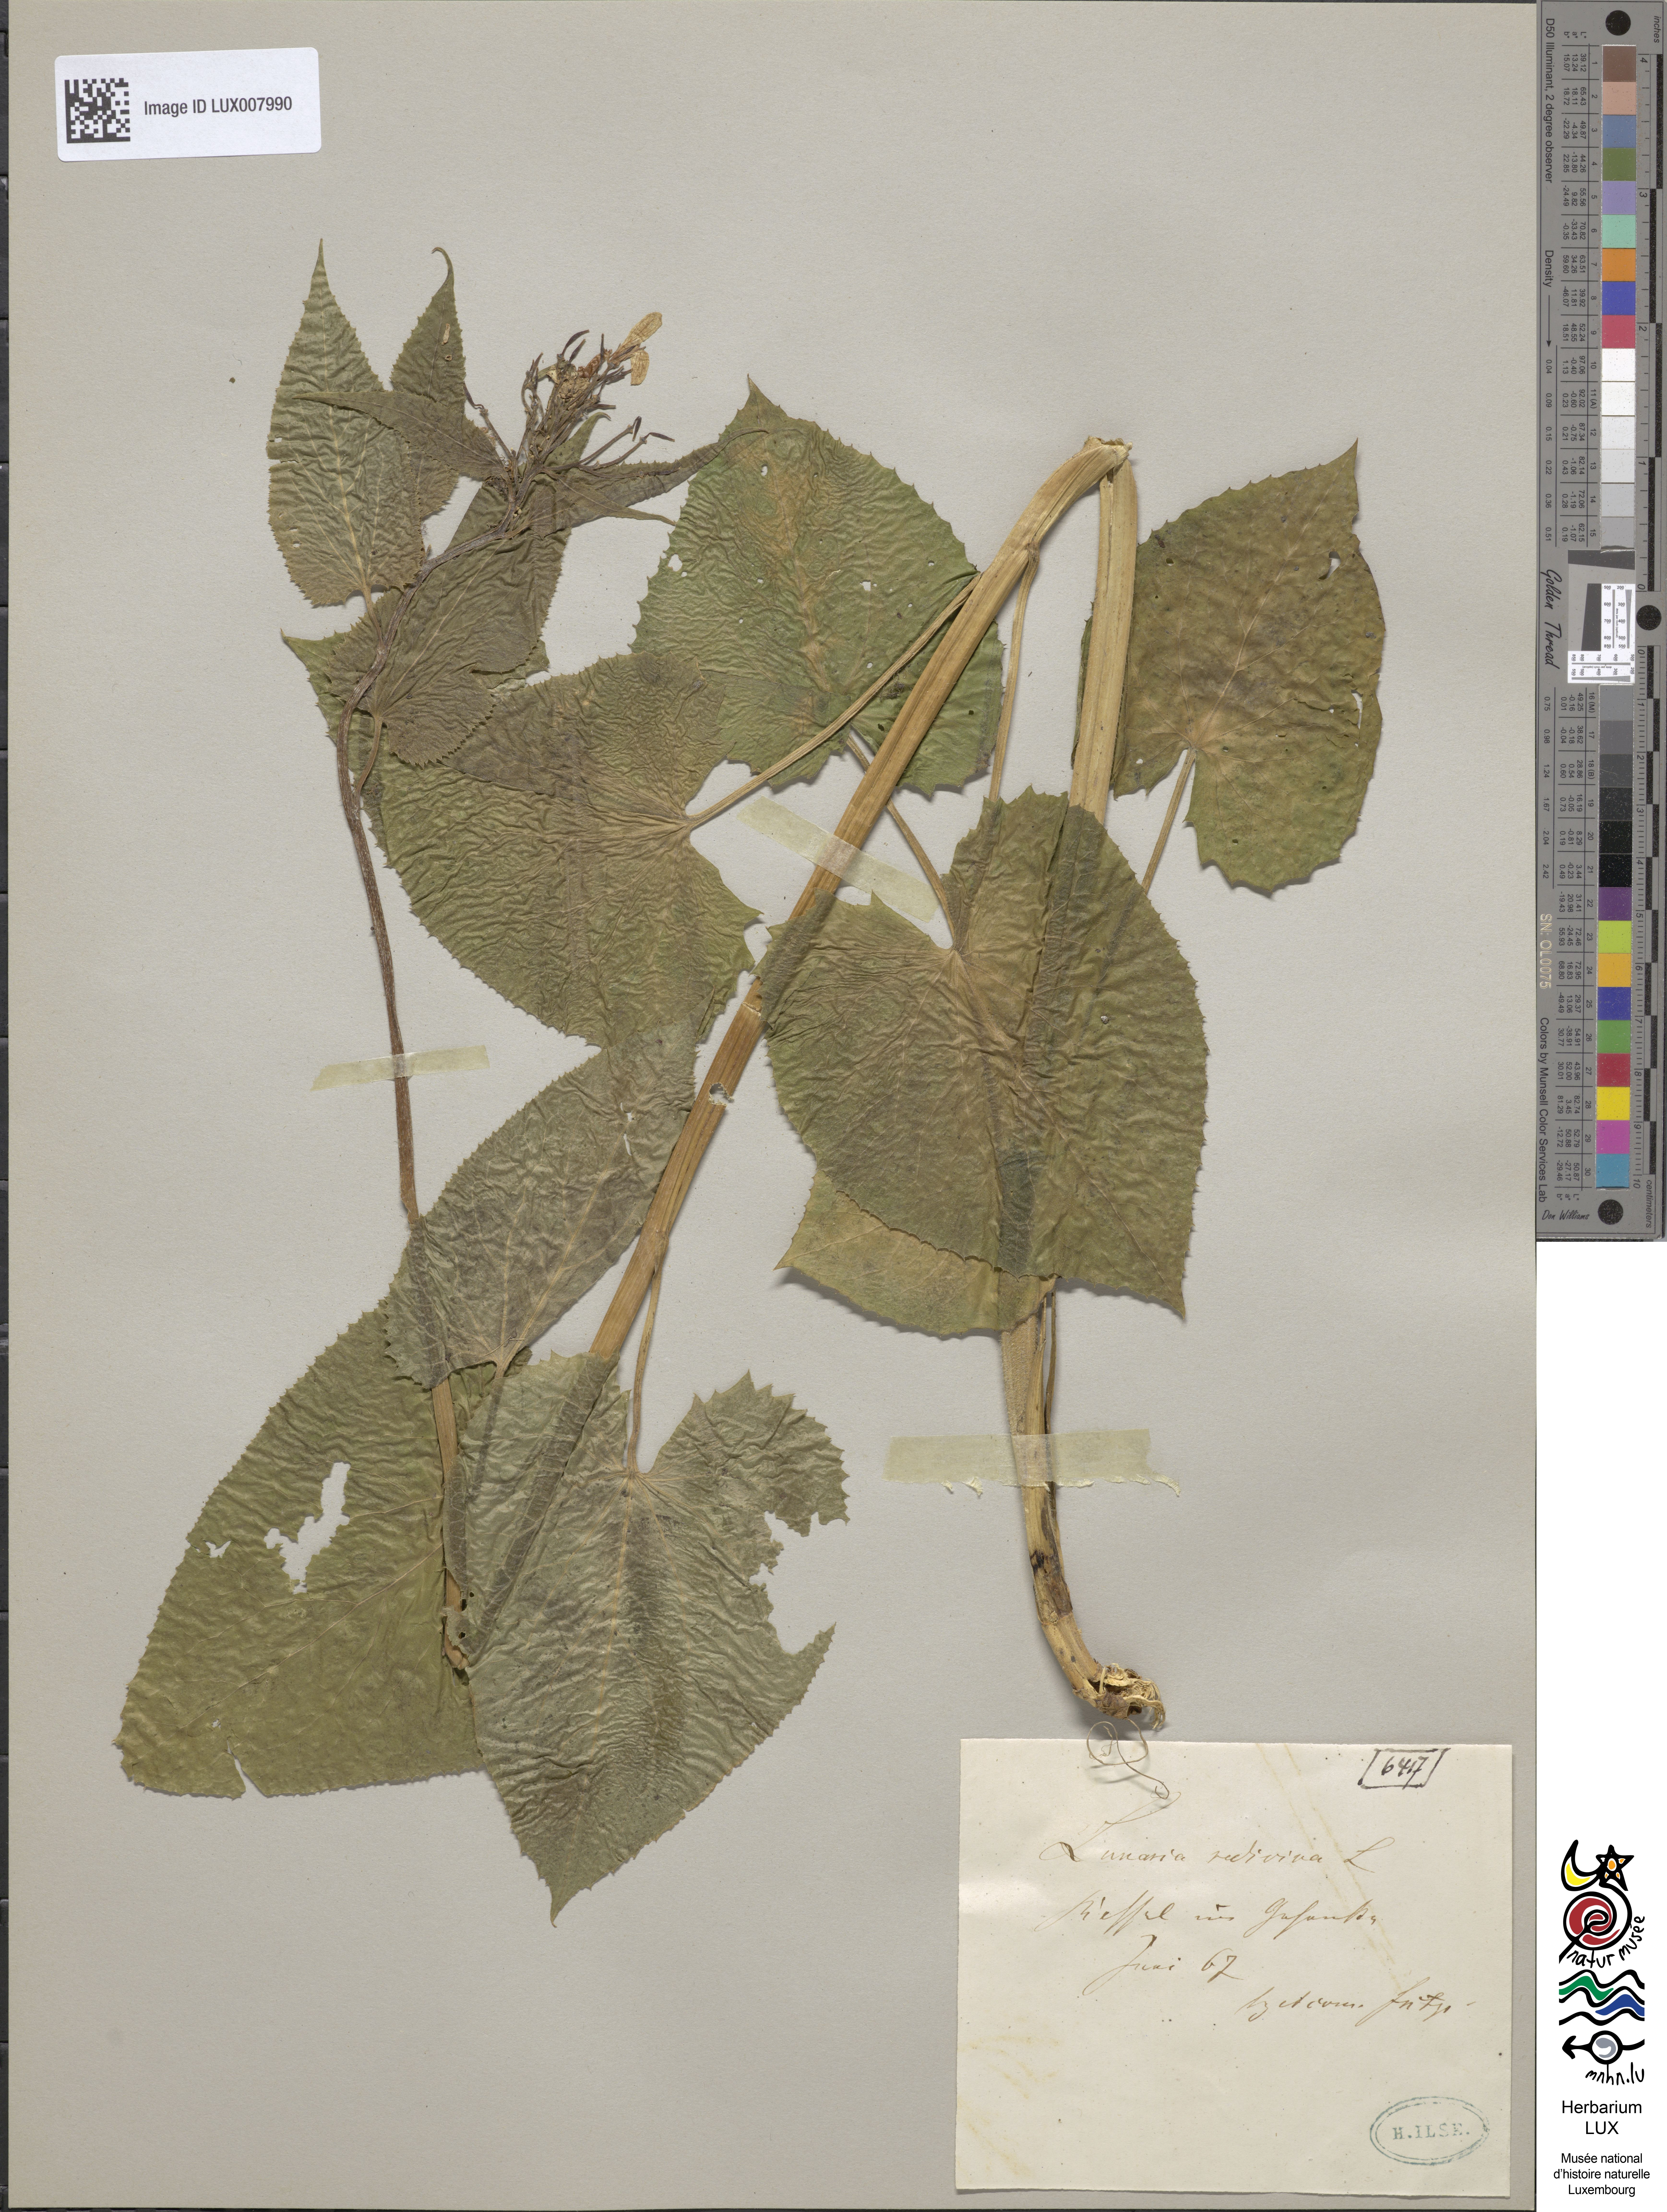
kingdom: Plantae
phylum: Tracheophyta
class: Magnoliopsida
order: Brassicales
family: Brassicaceae
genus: Lunaria
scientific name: Lunaria rediviva
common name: Perennial honesty
